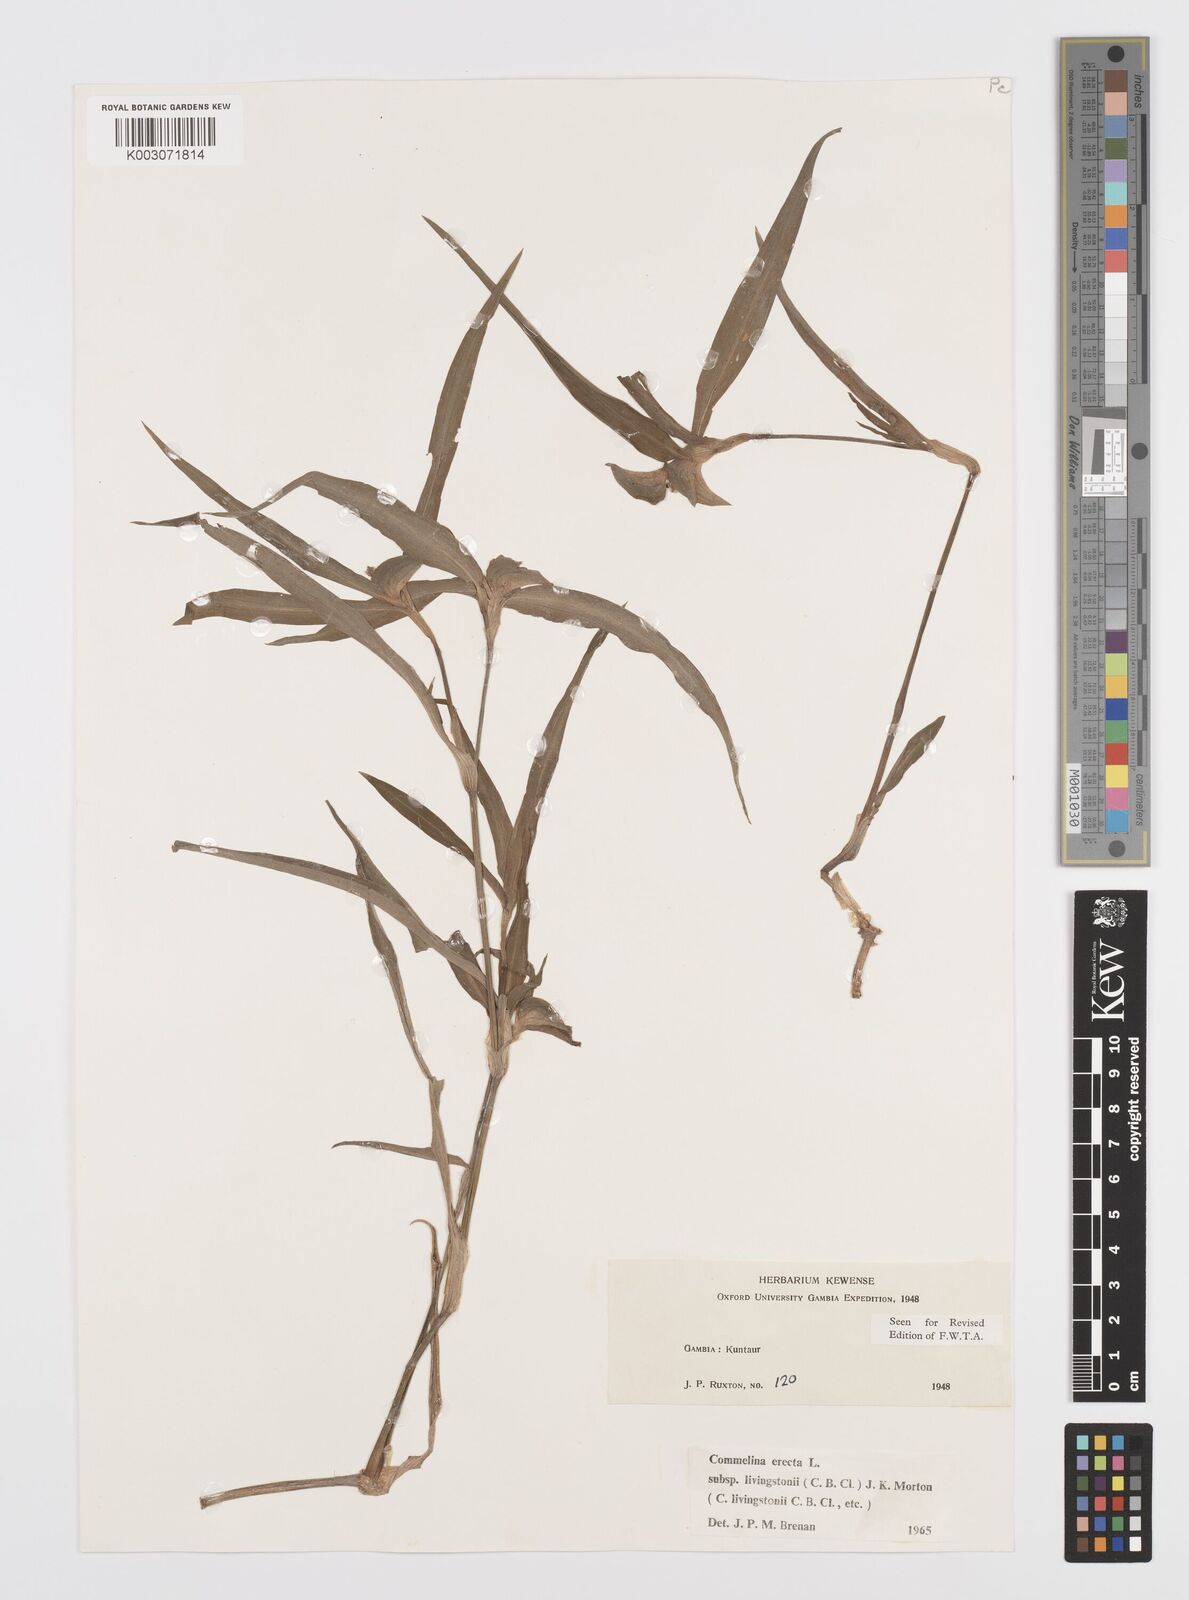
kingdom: Plantae
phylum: Tracheophyta
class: Liliopsida
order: Commelinales
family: Commelinaceae
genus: Commelina
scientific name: Commelina erecta
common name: Blousel blommetjie
